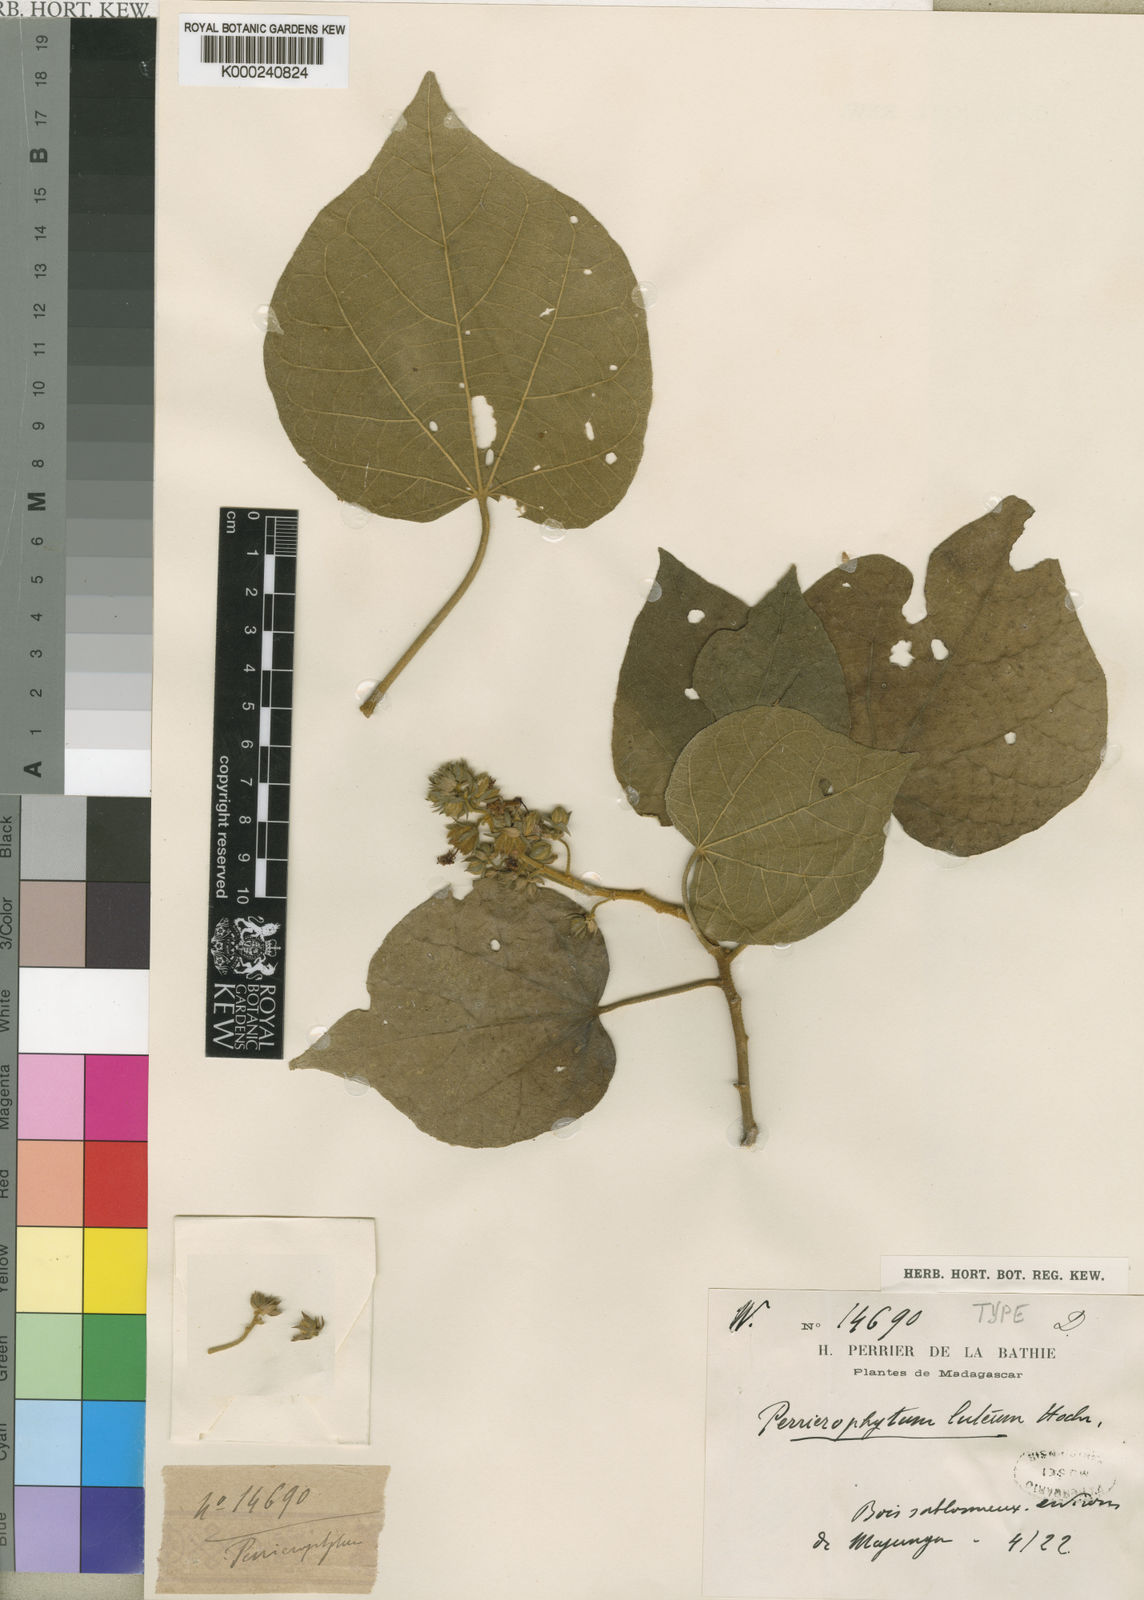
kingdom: Plantae
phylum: Tracheophyta
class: Magnoliopsida
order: Malvales
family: Malvaceae
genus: Perrierophytum
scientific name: Perrierophytum luteum
